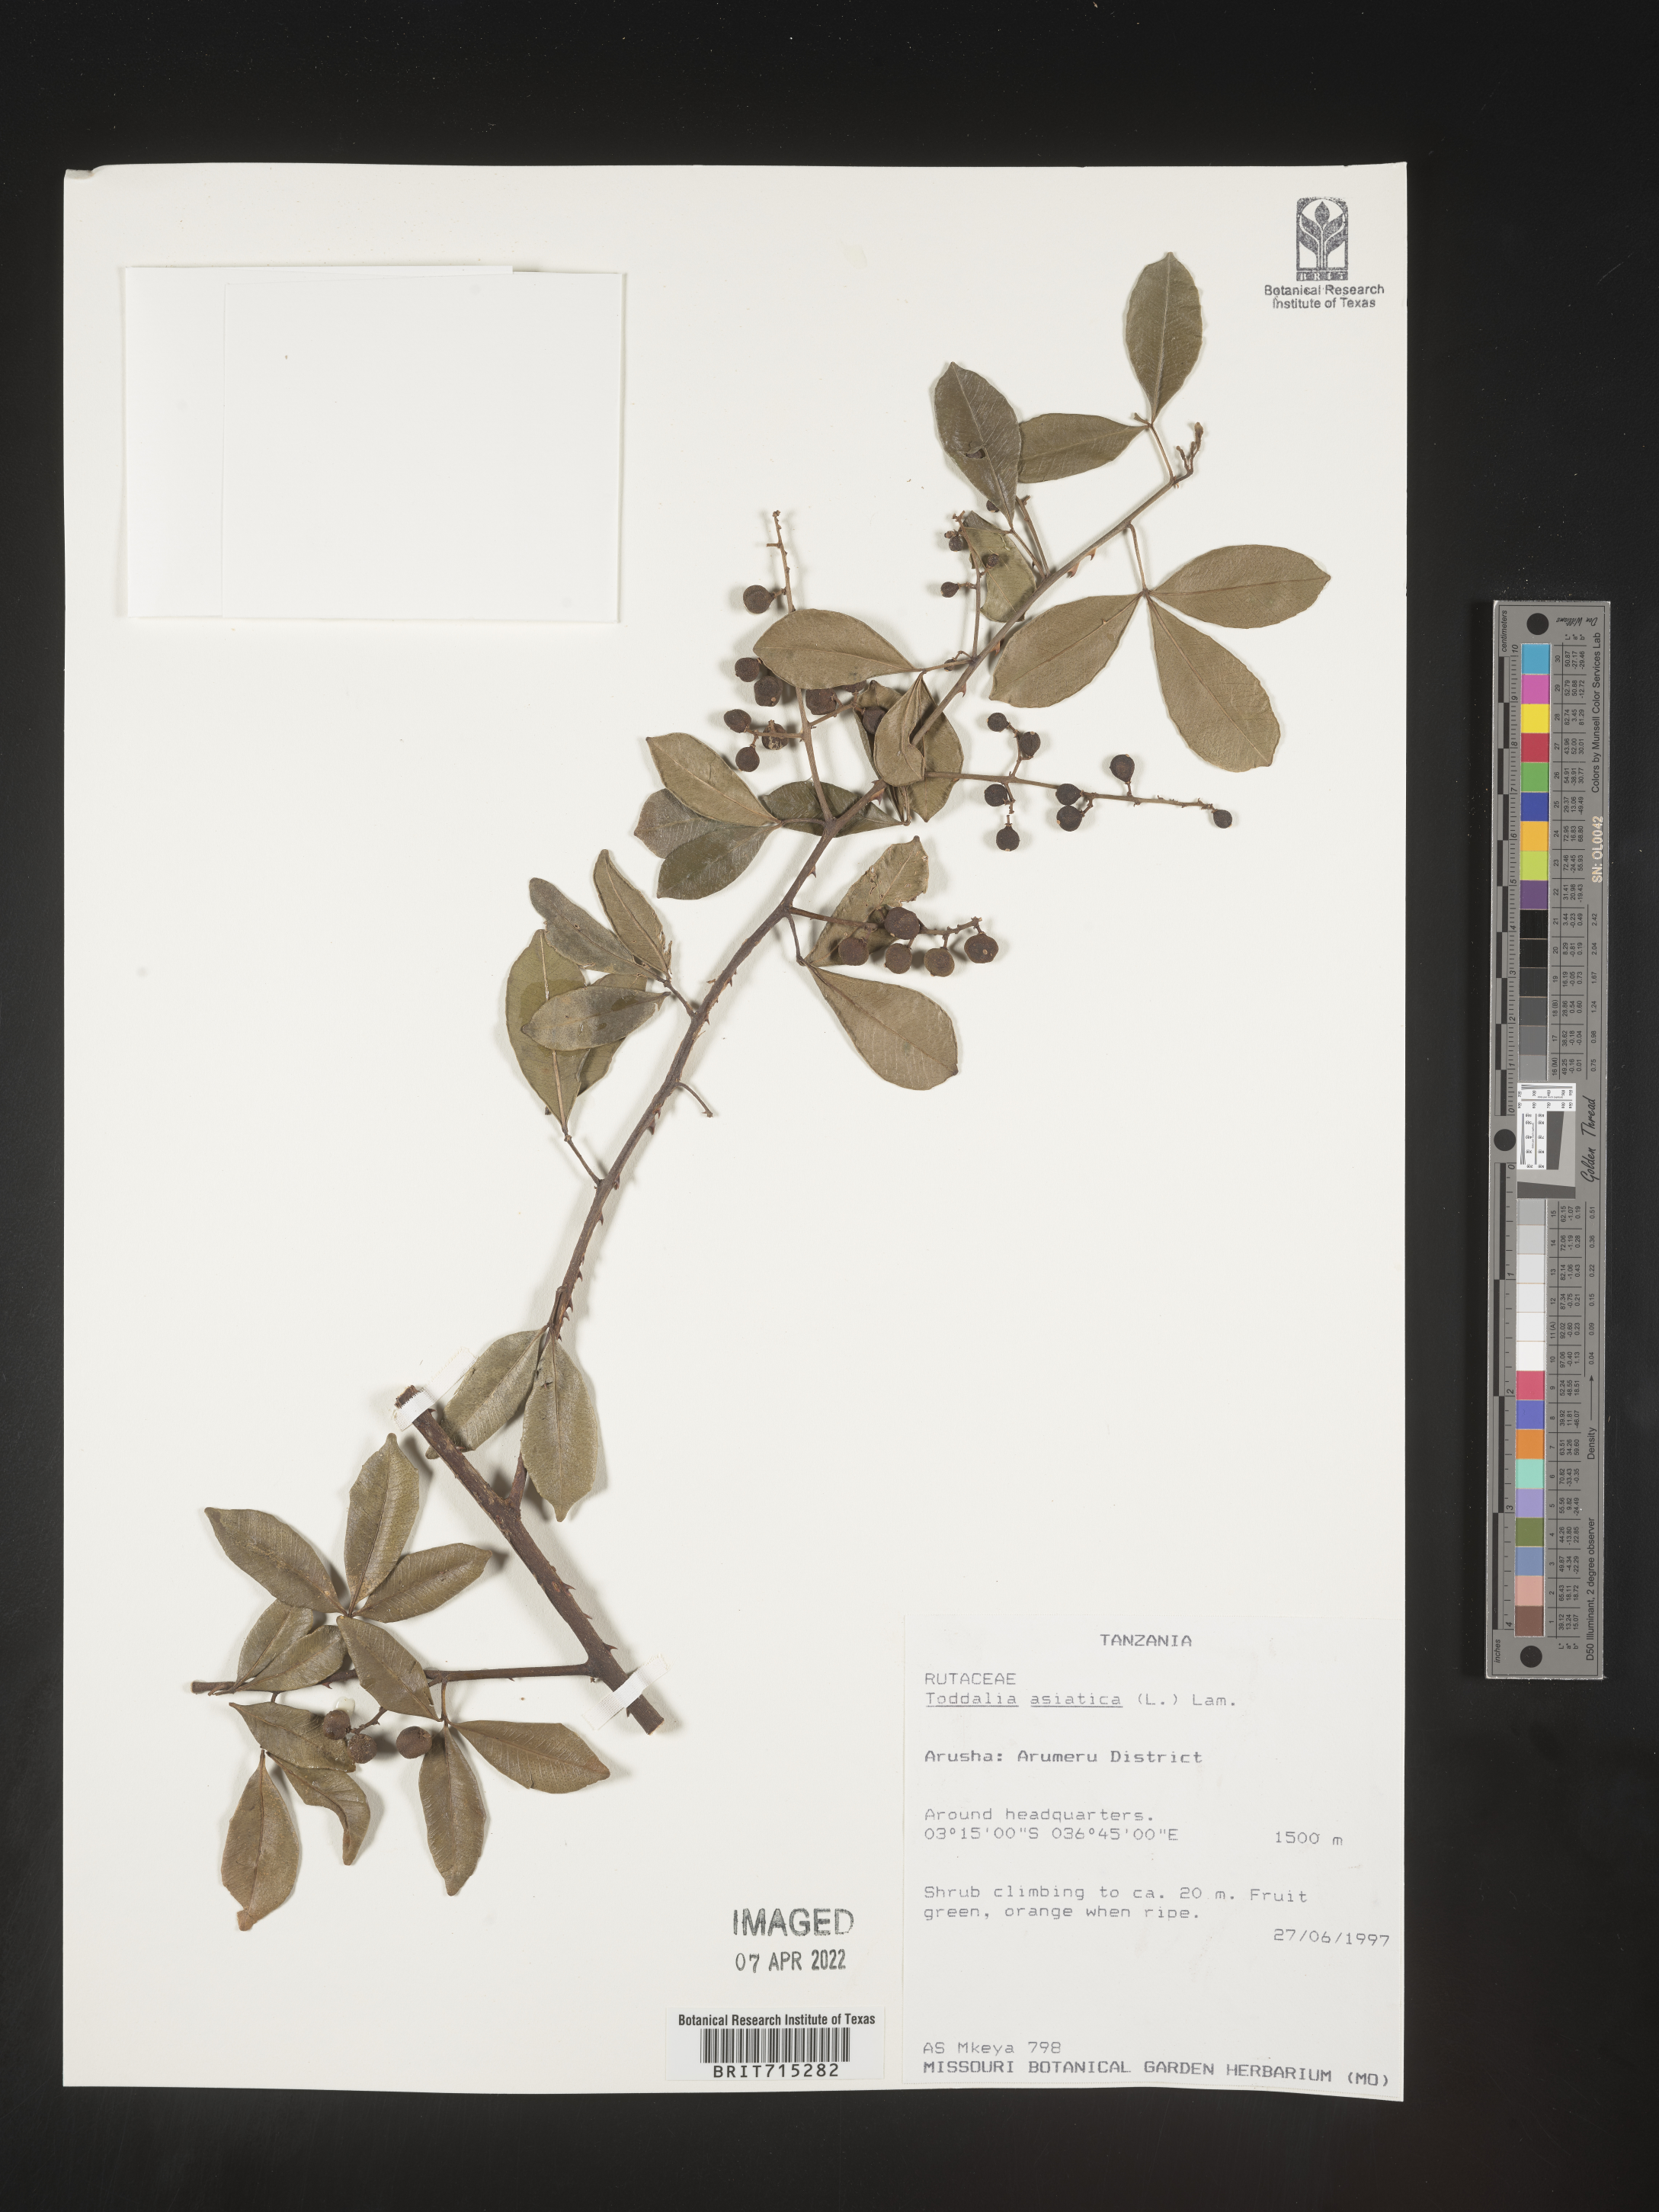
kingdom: Plantae
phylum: Tracheophyta
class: Magnoliopsida
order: Sapindales
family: Rutaceae
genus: Zanthoxylum
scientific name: Zanthoxylum
